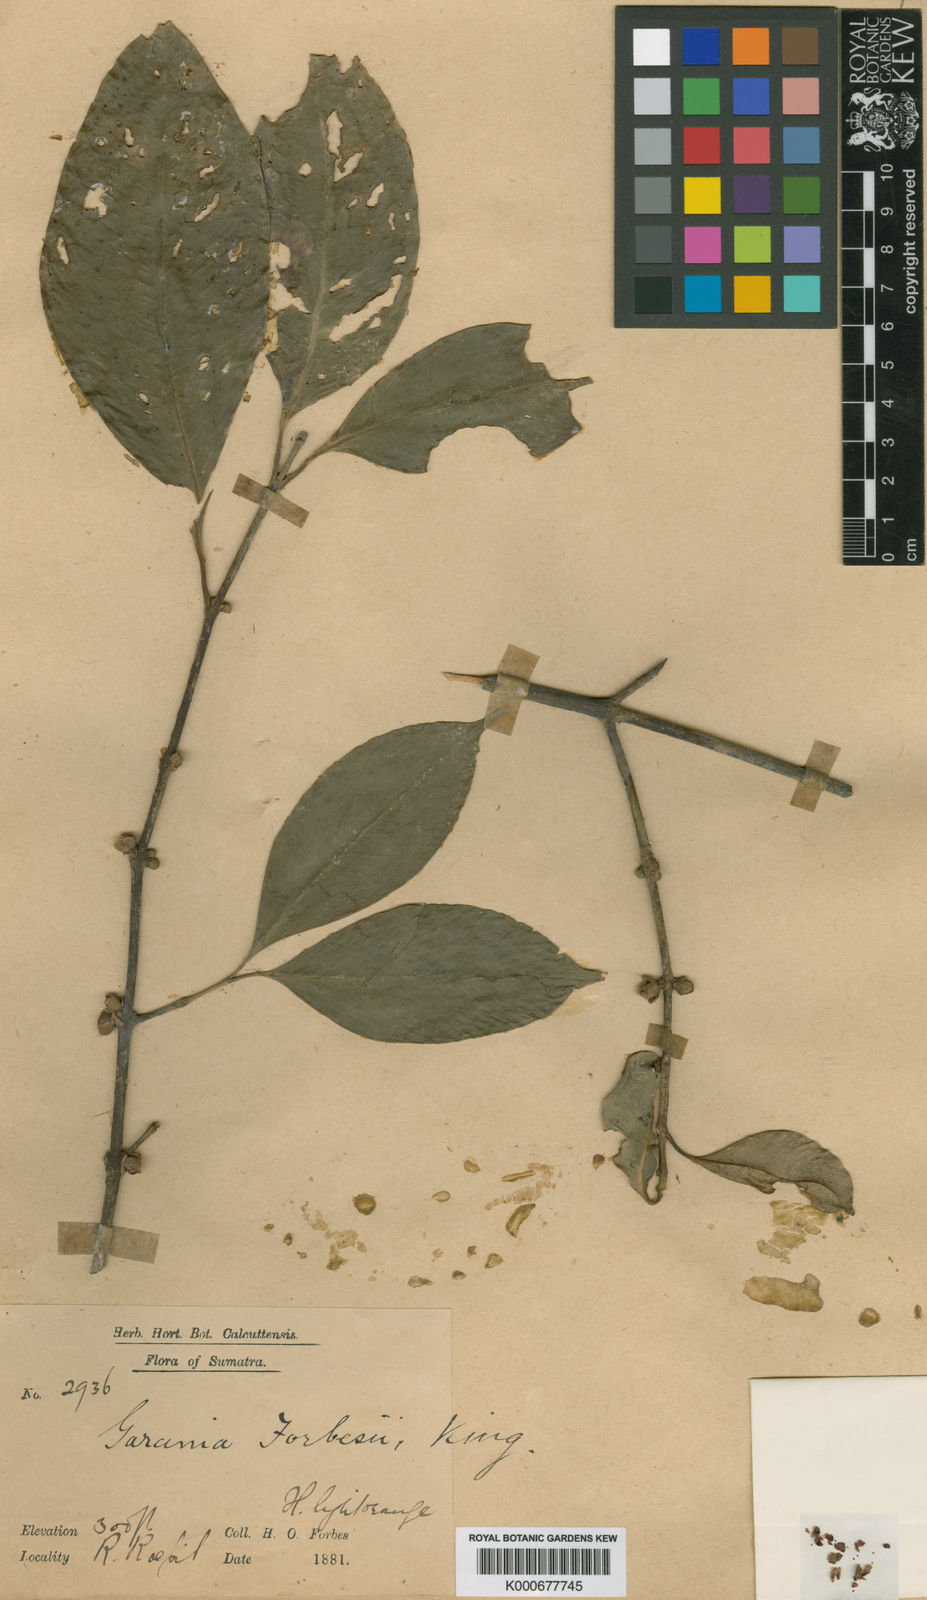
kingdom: Plantae
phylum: Tracheophyta
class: Magnoliopsida
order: Malpighiales
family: Clusiaceae
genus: Garcinia
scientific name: Garcinia forbesii
